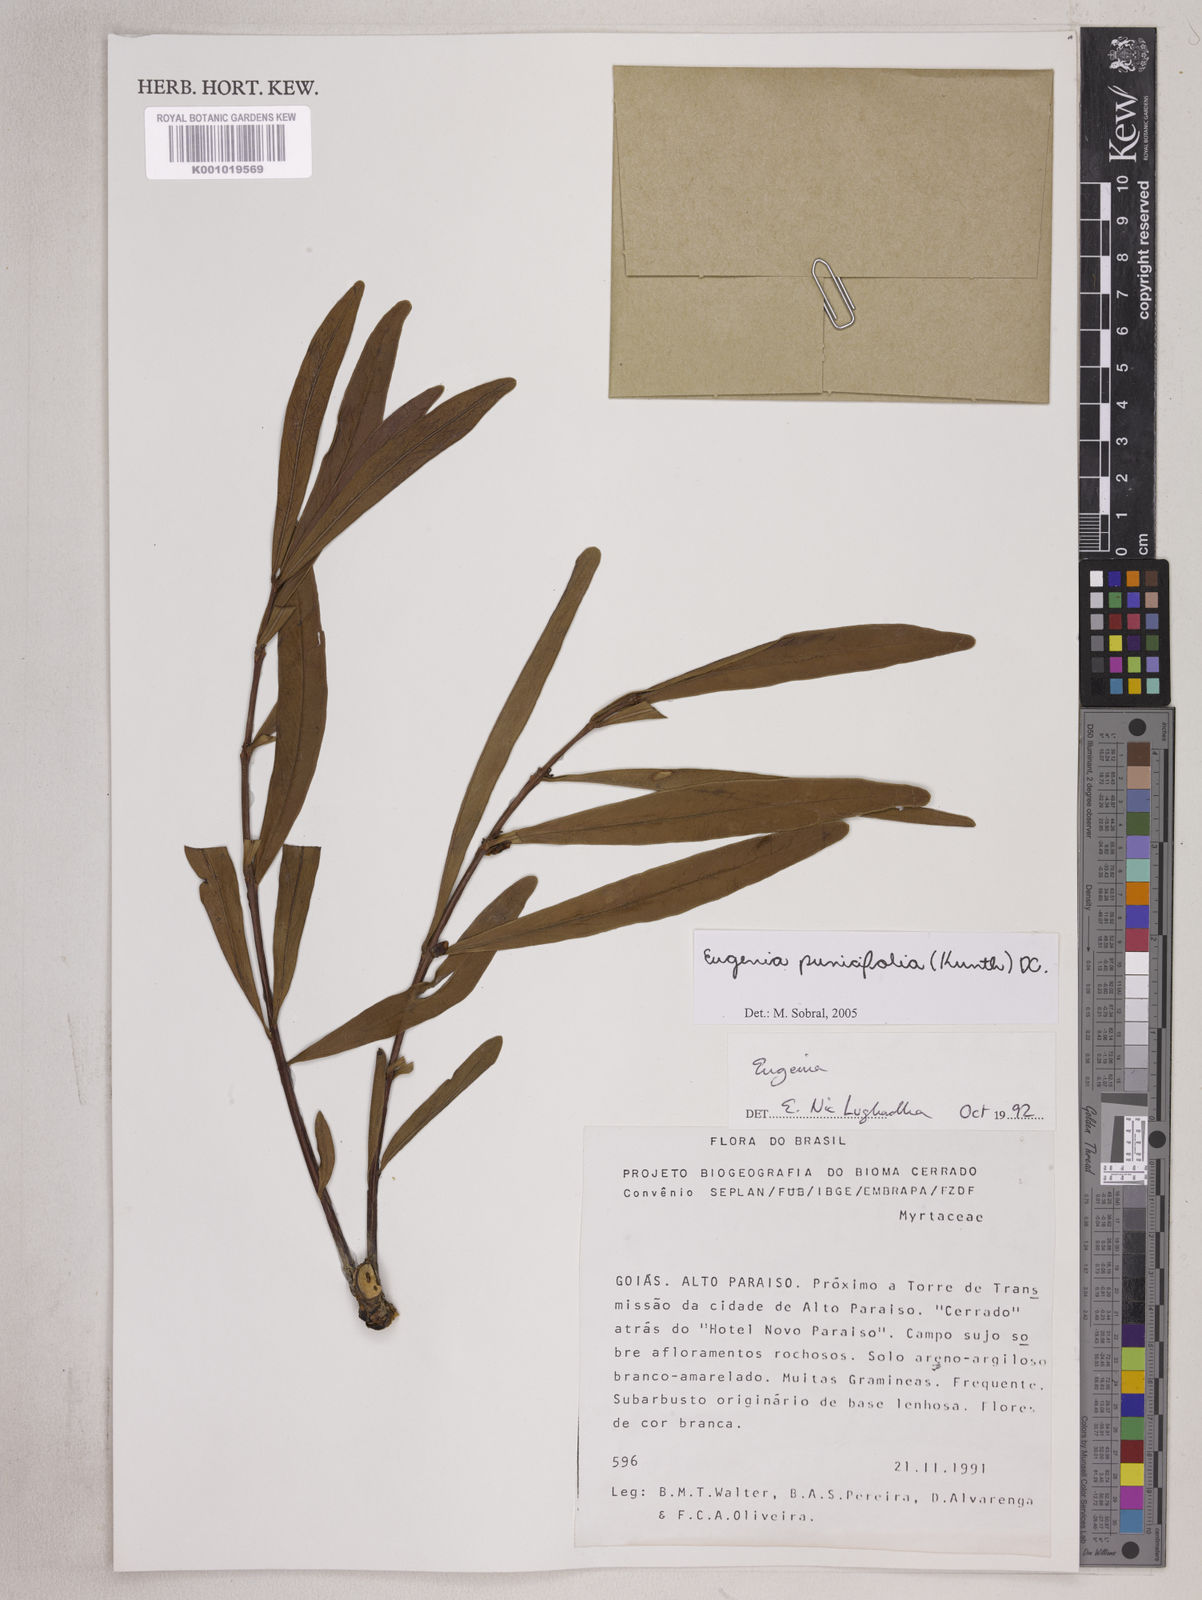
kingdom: Plantae
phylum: Tracheophyta
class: Magnoliopsida
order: Myrtales
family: Myrtaceae
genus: Eugenia
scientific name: Eugenia punicifolia
